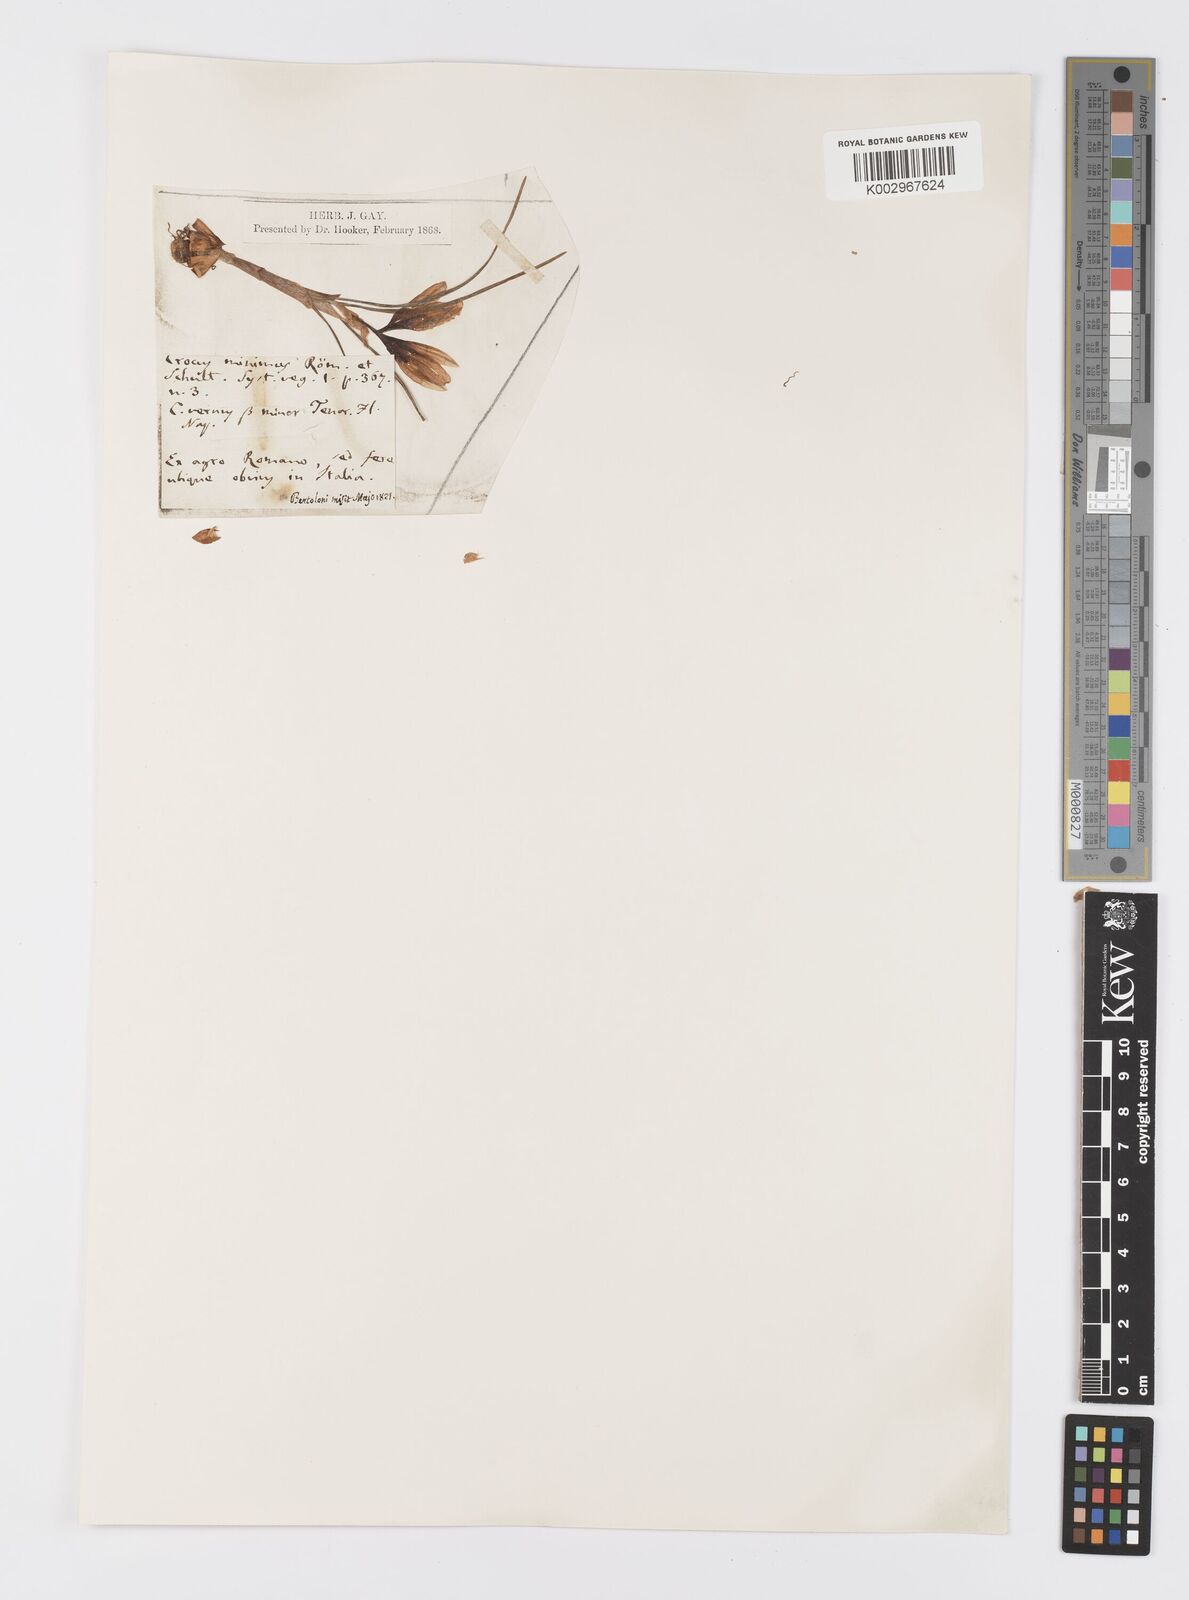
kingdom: Plantae
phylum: Tracheophyta
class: Liliopsida
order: Asparagales
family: Iridaceae
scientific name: Iridaceae
